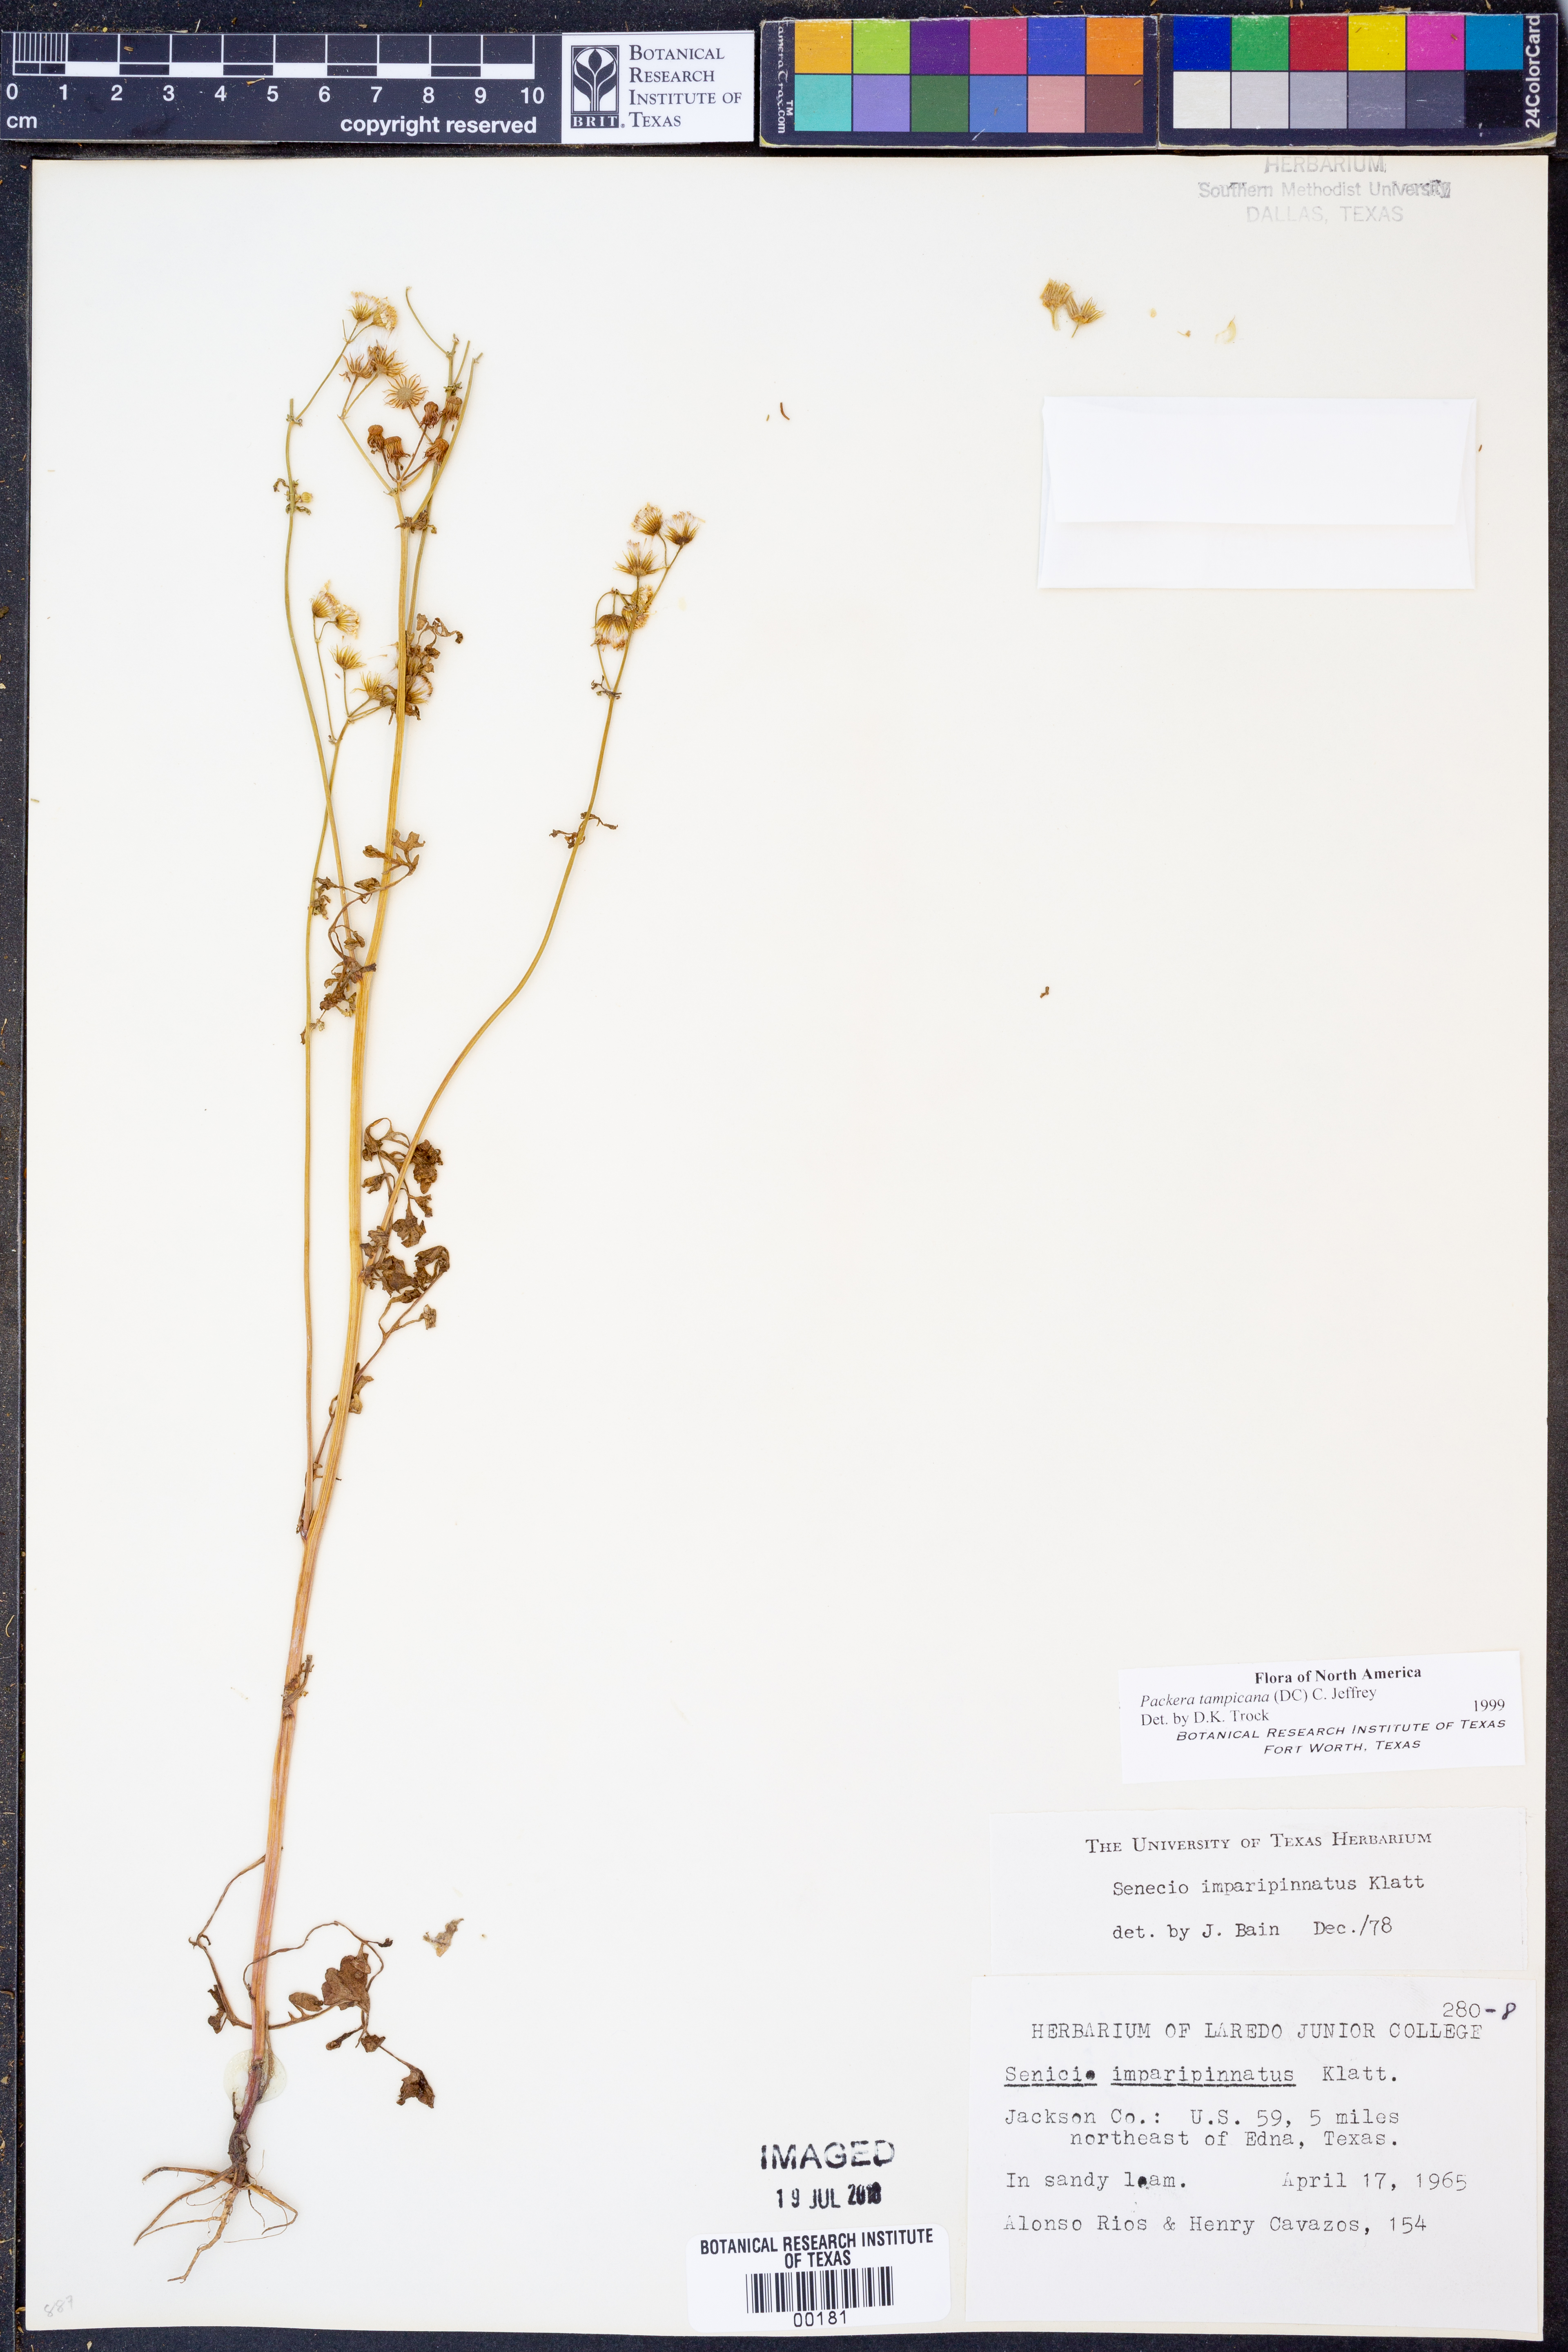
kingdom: Plantae
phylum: Tracheophyta
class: Magnoliopsida
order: Asterales
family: Asteraceae
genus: Packera
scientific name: Packera tampicana
